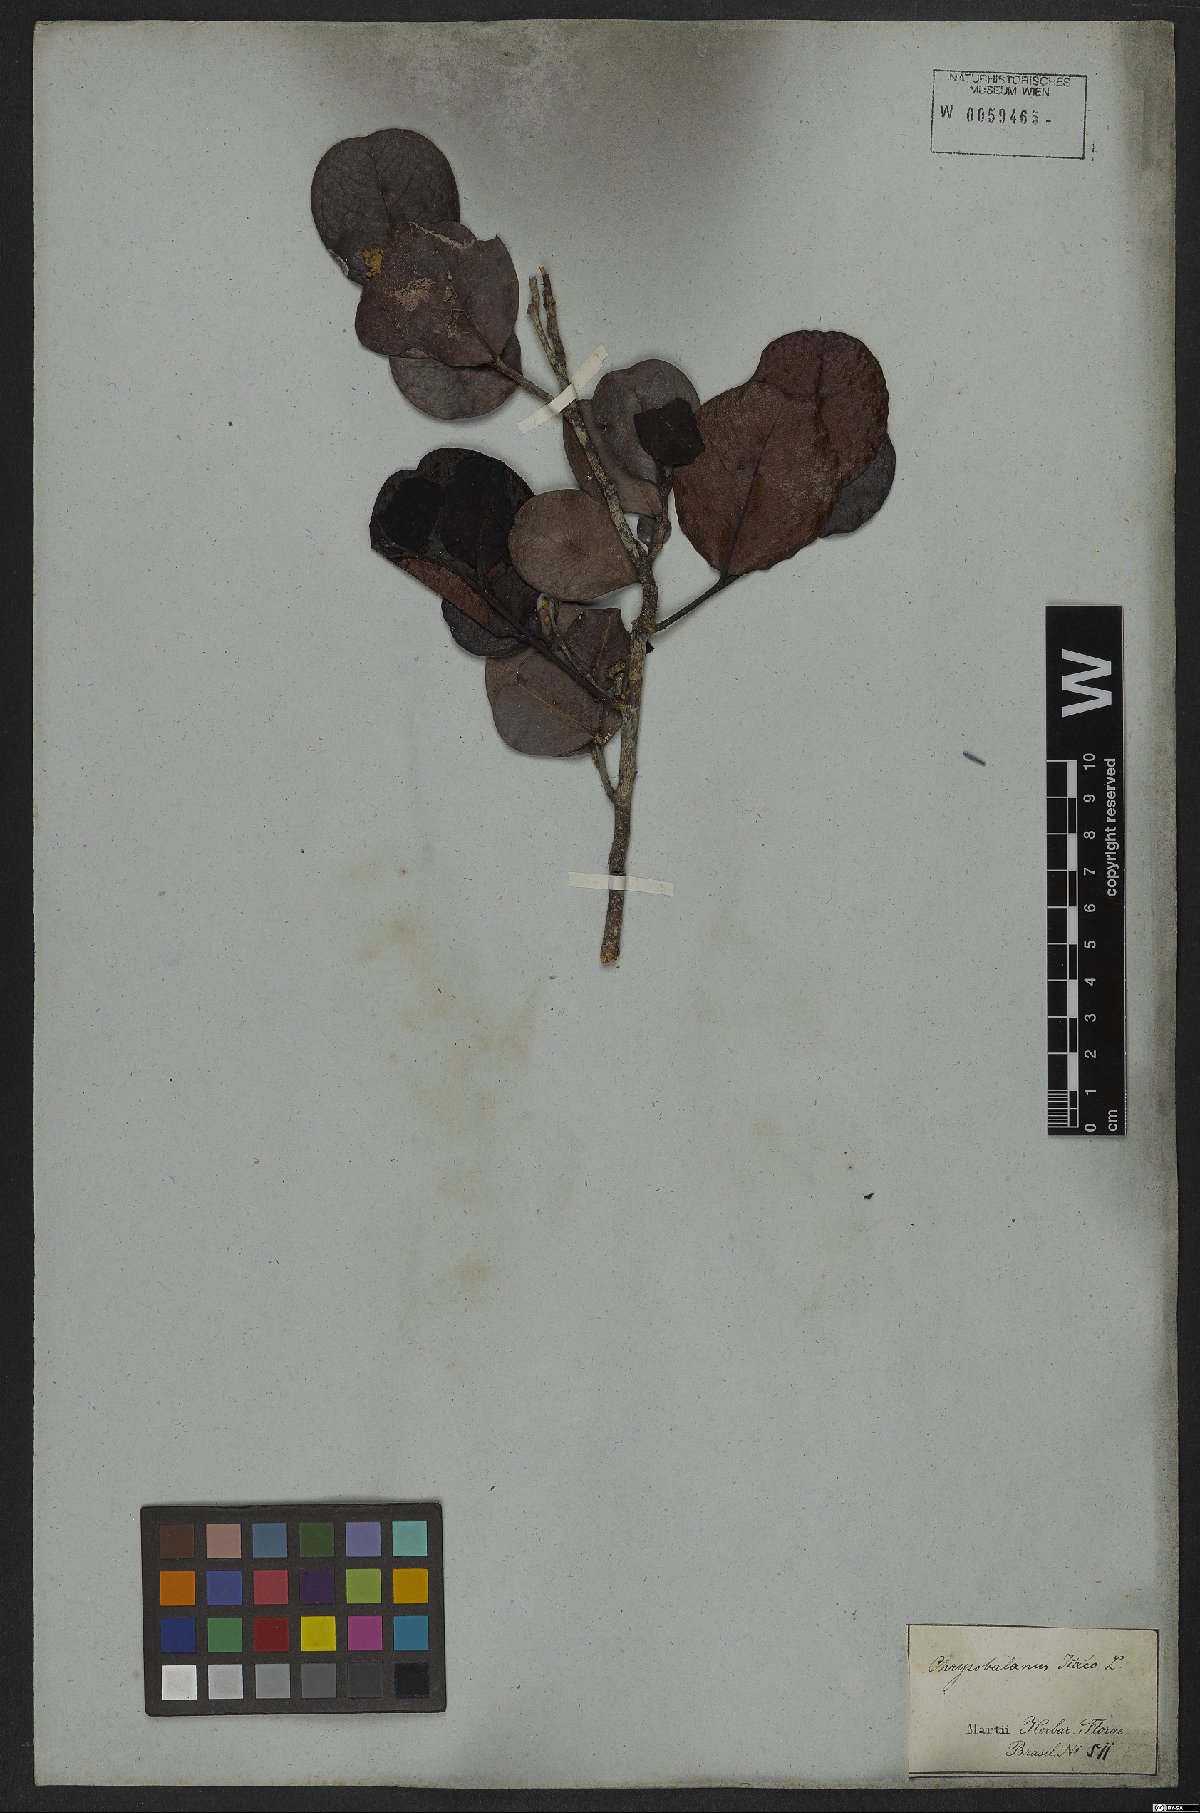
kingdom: Plantae
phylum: Tracheophyta
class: Magnoliopsida
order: Malpighiales
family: Chrysobalanaceae
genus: Chrysobalanus
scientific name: Chrysobalanus icaco
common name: Coco plum
